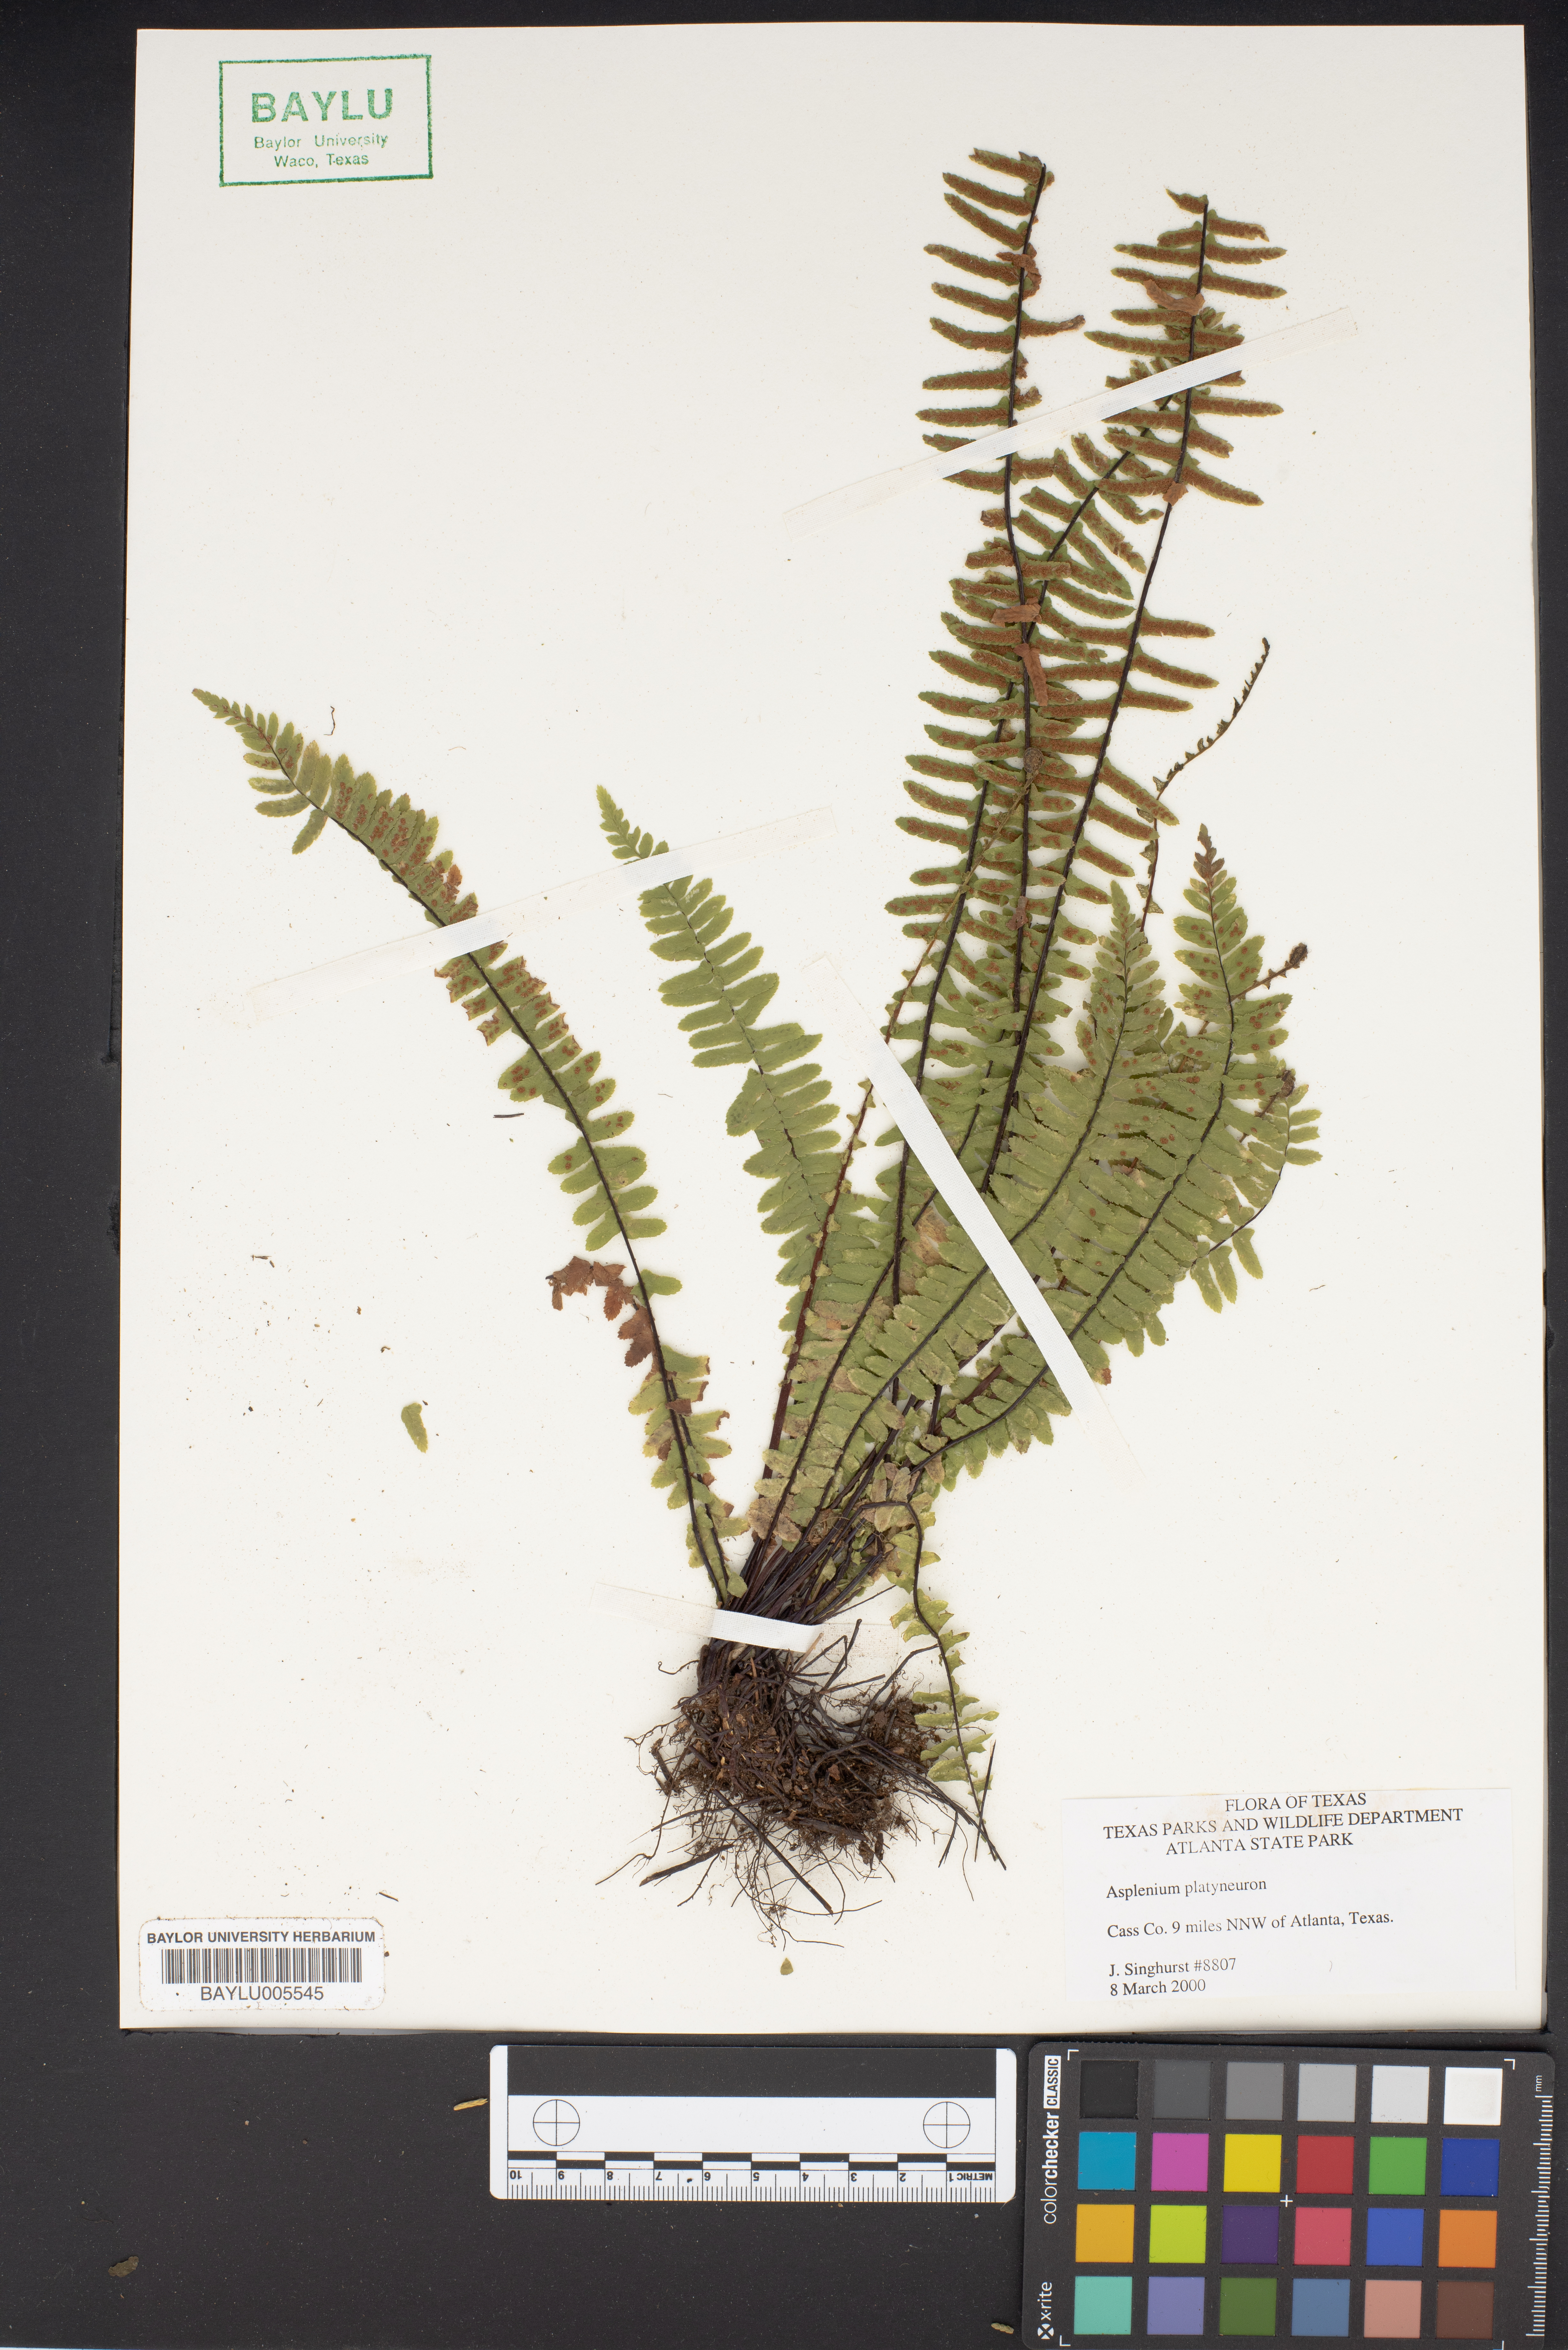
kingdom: Plantae
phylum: Tracheophyta
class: Polypodiopsida
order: Polypodiales
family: Aspleniaceae
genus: Asplenium
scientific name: Asplenium platyneuron
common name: Ebony spleenwort
